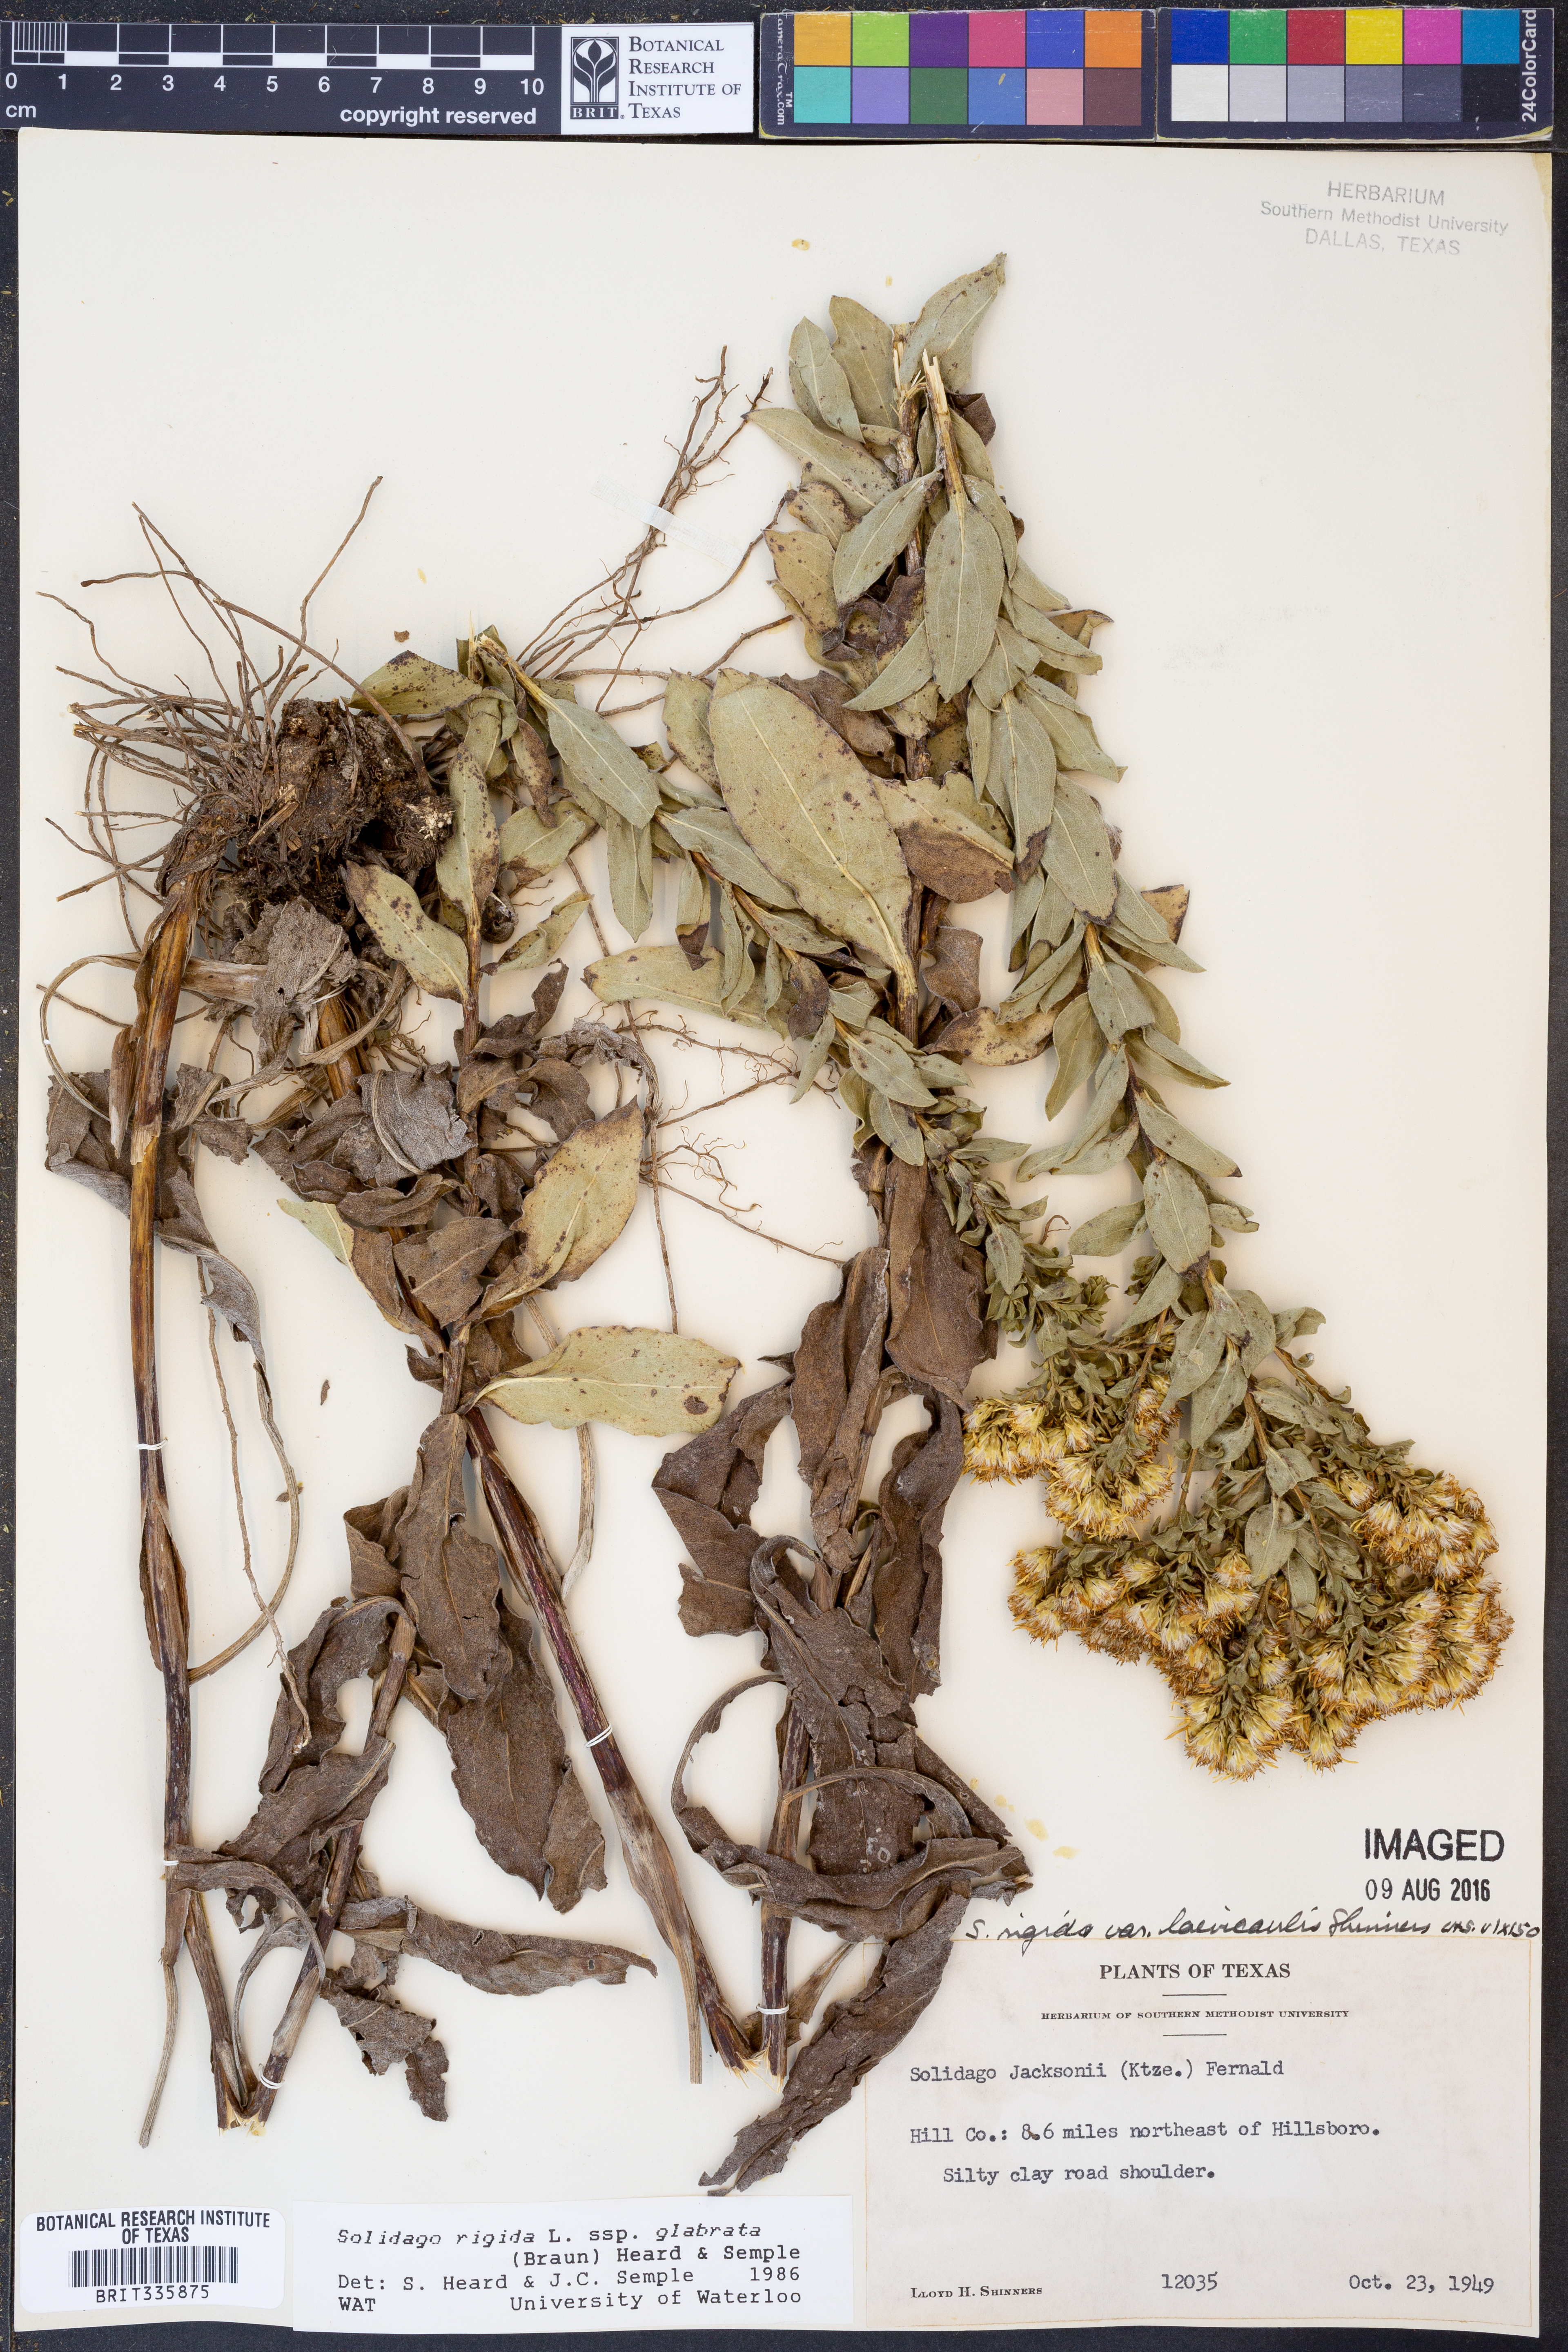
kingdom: Plantae
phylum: Tracheophyta
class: Magnoliopsida
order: Asterales
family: Asteraceae
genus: Solidago
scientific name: Solidago rigida
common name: Rigid goldenrod
